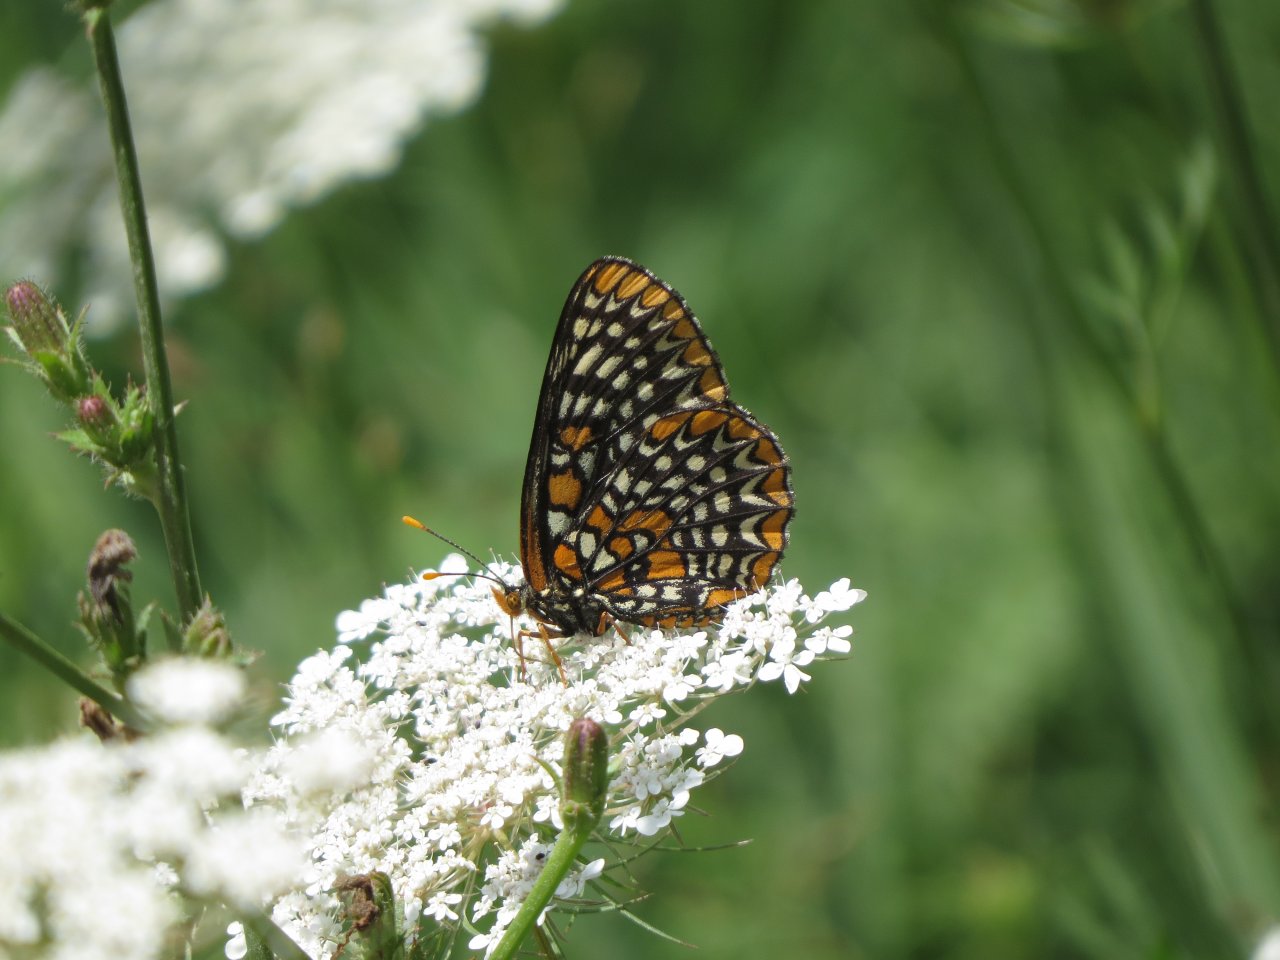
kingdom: Animalia
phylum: Arthropoda
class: Insecta
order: Lepidoptera
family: Nymphalidae
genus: Euphydryas
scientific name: Euphydryas phaeton
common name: Baltimore Checkerspot
